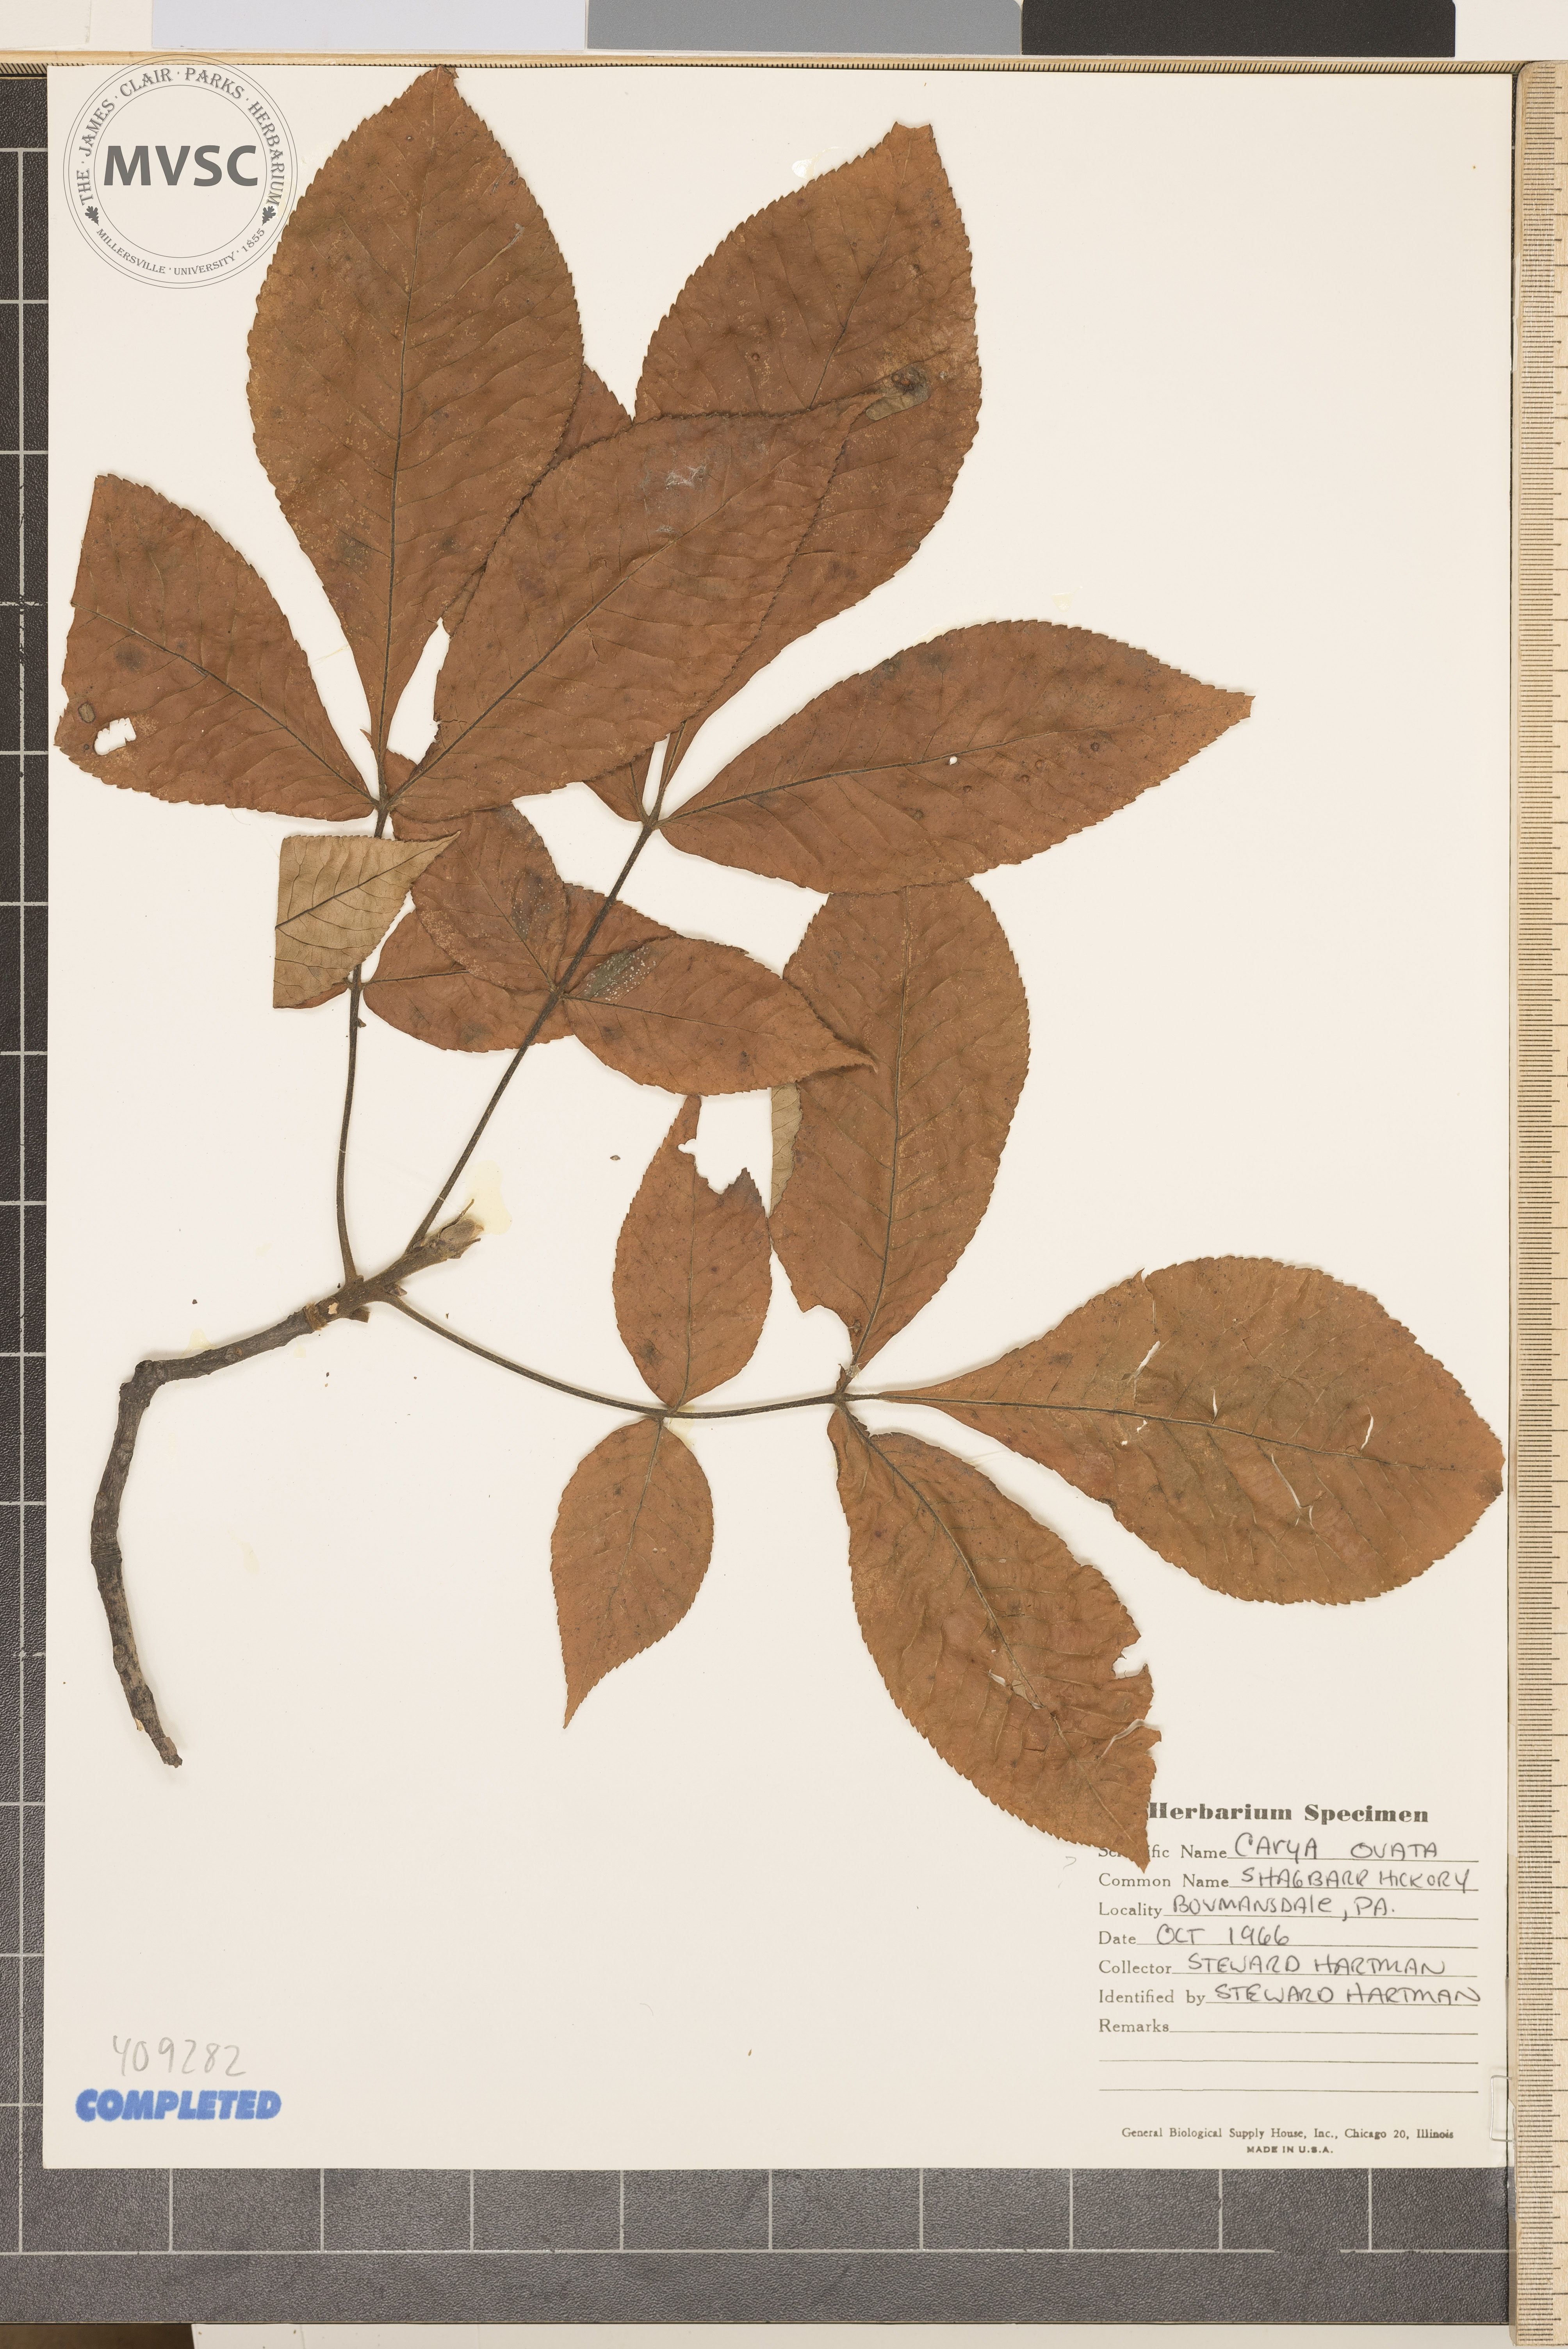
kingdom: Plantae
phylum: Tracheophyta
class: Magnoliopsida
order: Fagales
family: Juglandaceae
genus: Carya
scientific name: Carya ovata
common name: Shagbark hickory
